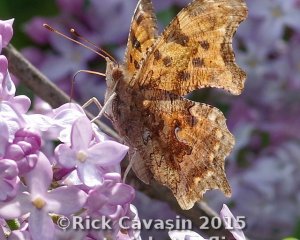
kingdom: Animalia
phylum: Arthropoda
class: Insecta
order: Lepidoptera
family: Nymphalidae
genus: Polygonia
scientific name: Polygonia comma
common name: Eastern Comma
